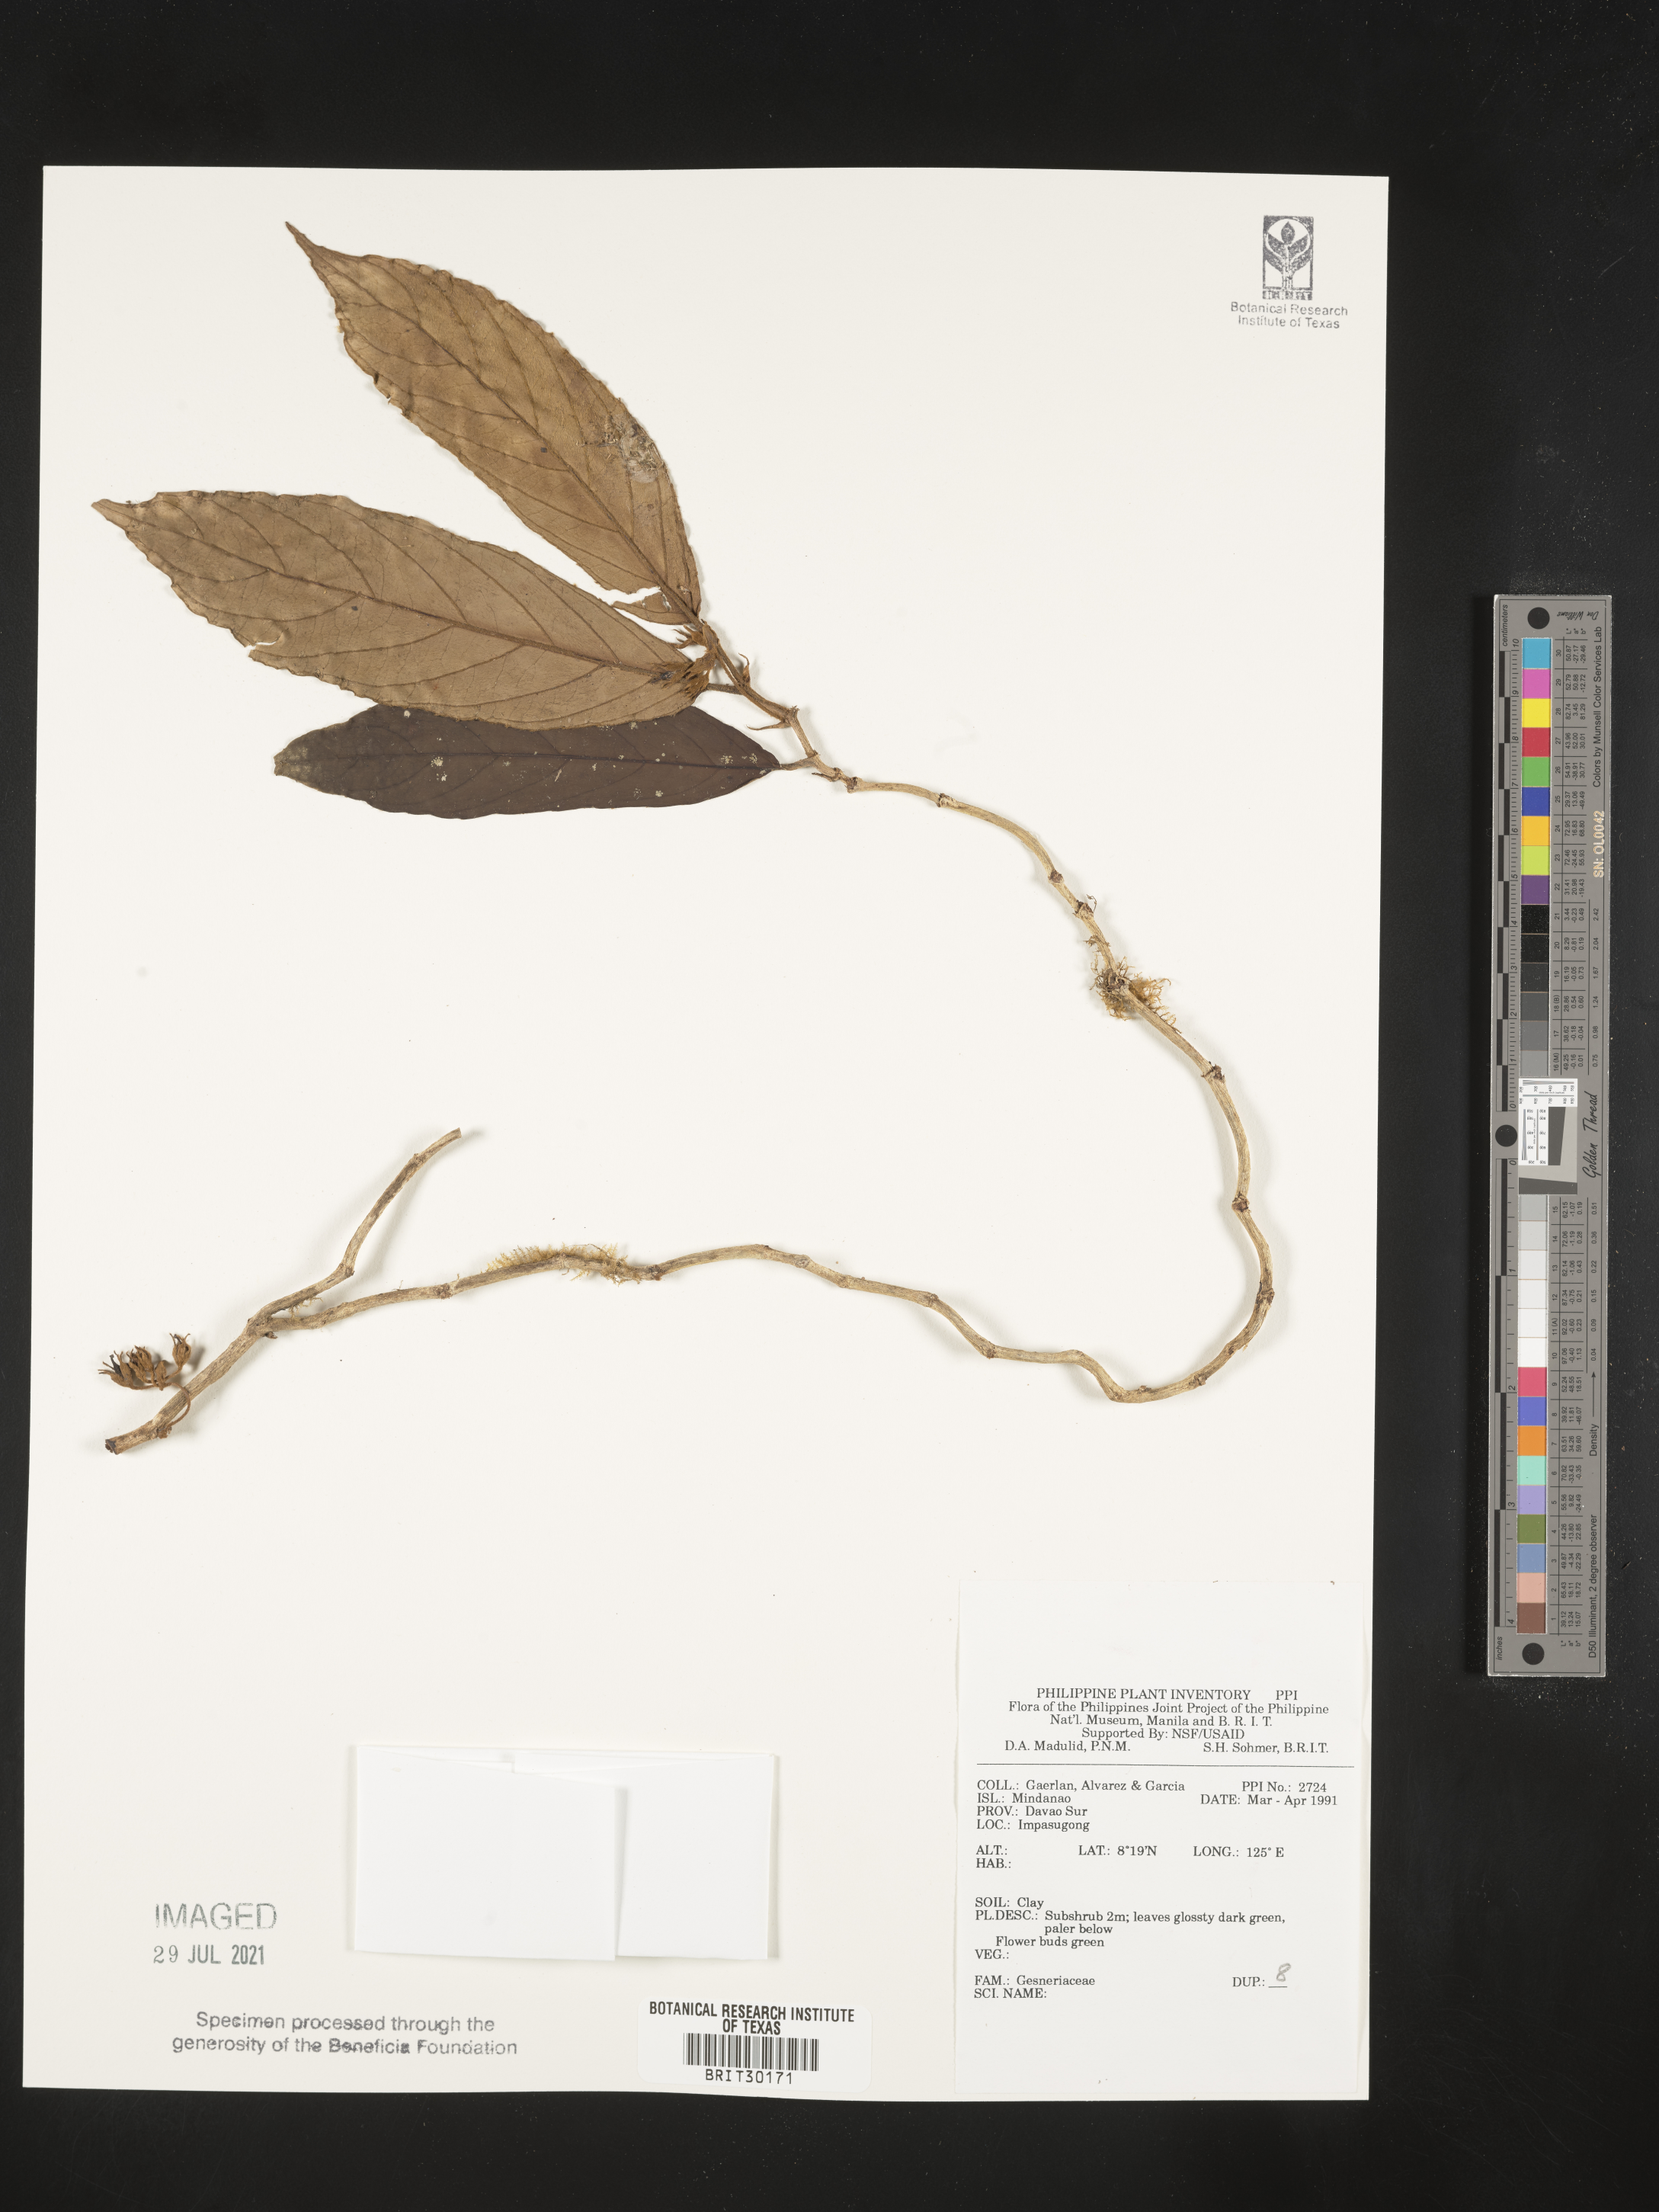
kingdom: Plantae
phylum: Tracheophyta
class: Magnoliopsida
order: Lamiales
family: Gesneriaceae
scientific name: Gesneriaceae
